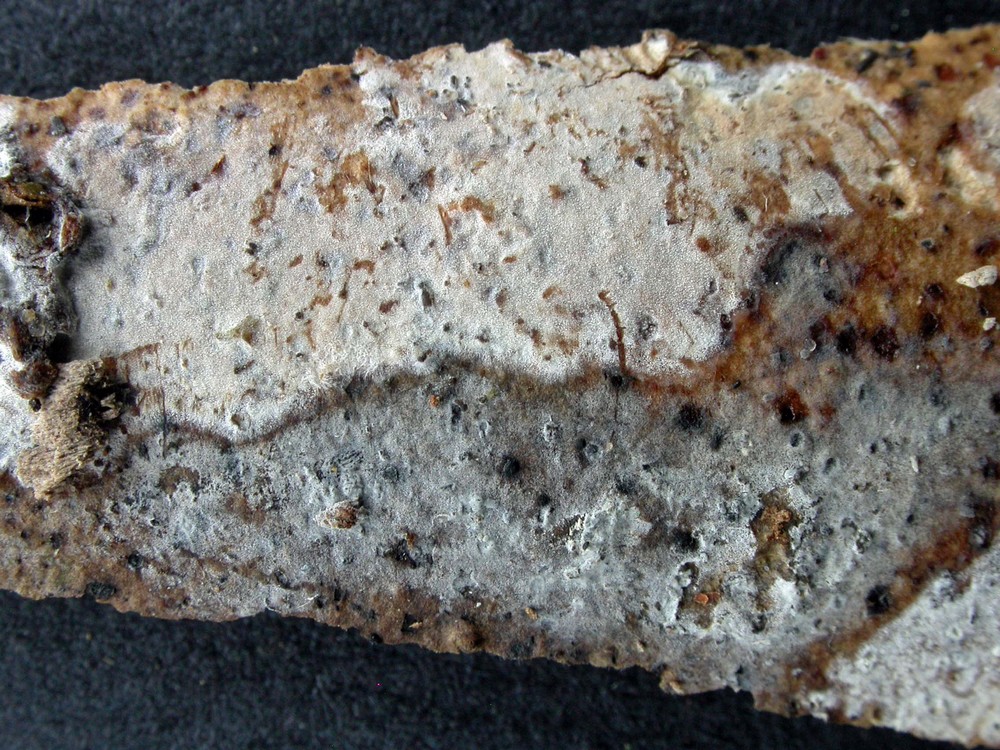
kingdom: Fungi
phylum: Basidiomycota
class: Agaricomycetes
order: Auriculariales
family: Auriculariaceae
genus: Alloexidiopsis
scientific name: Alloexidiopsis calcea
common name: kalkhvid bævrehinde
